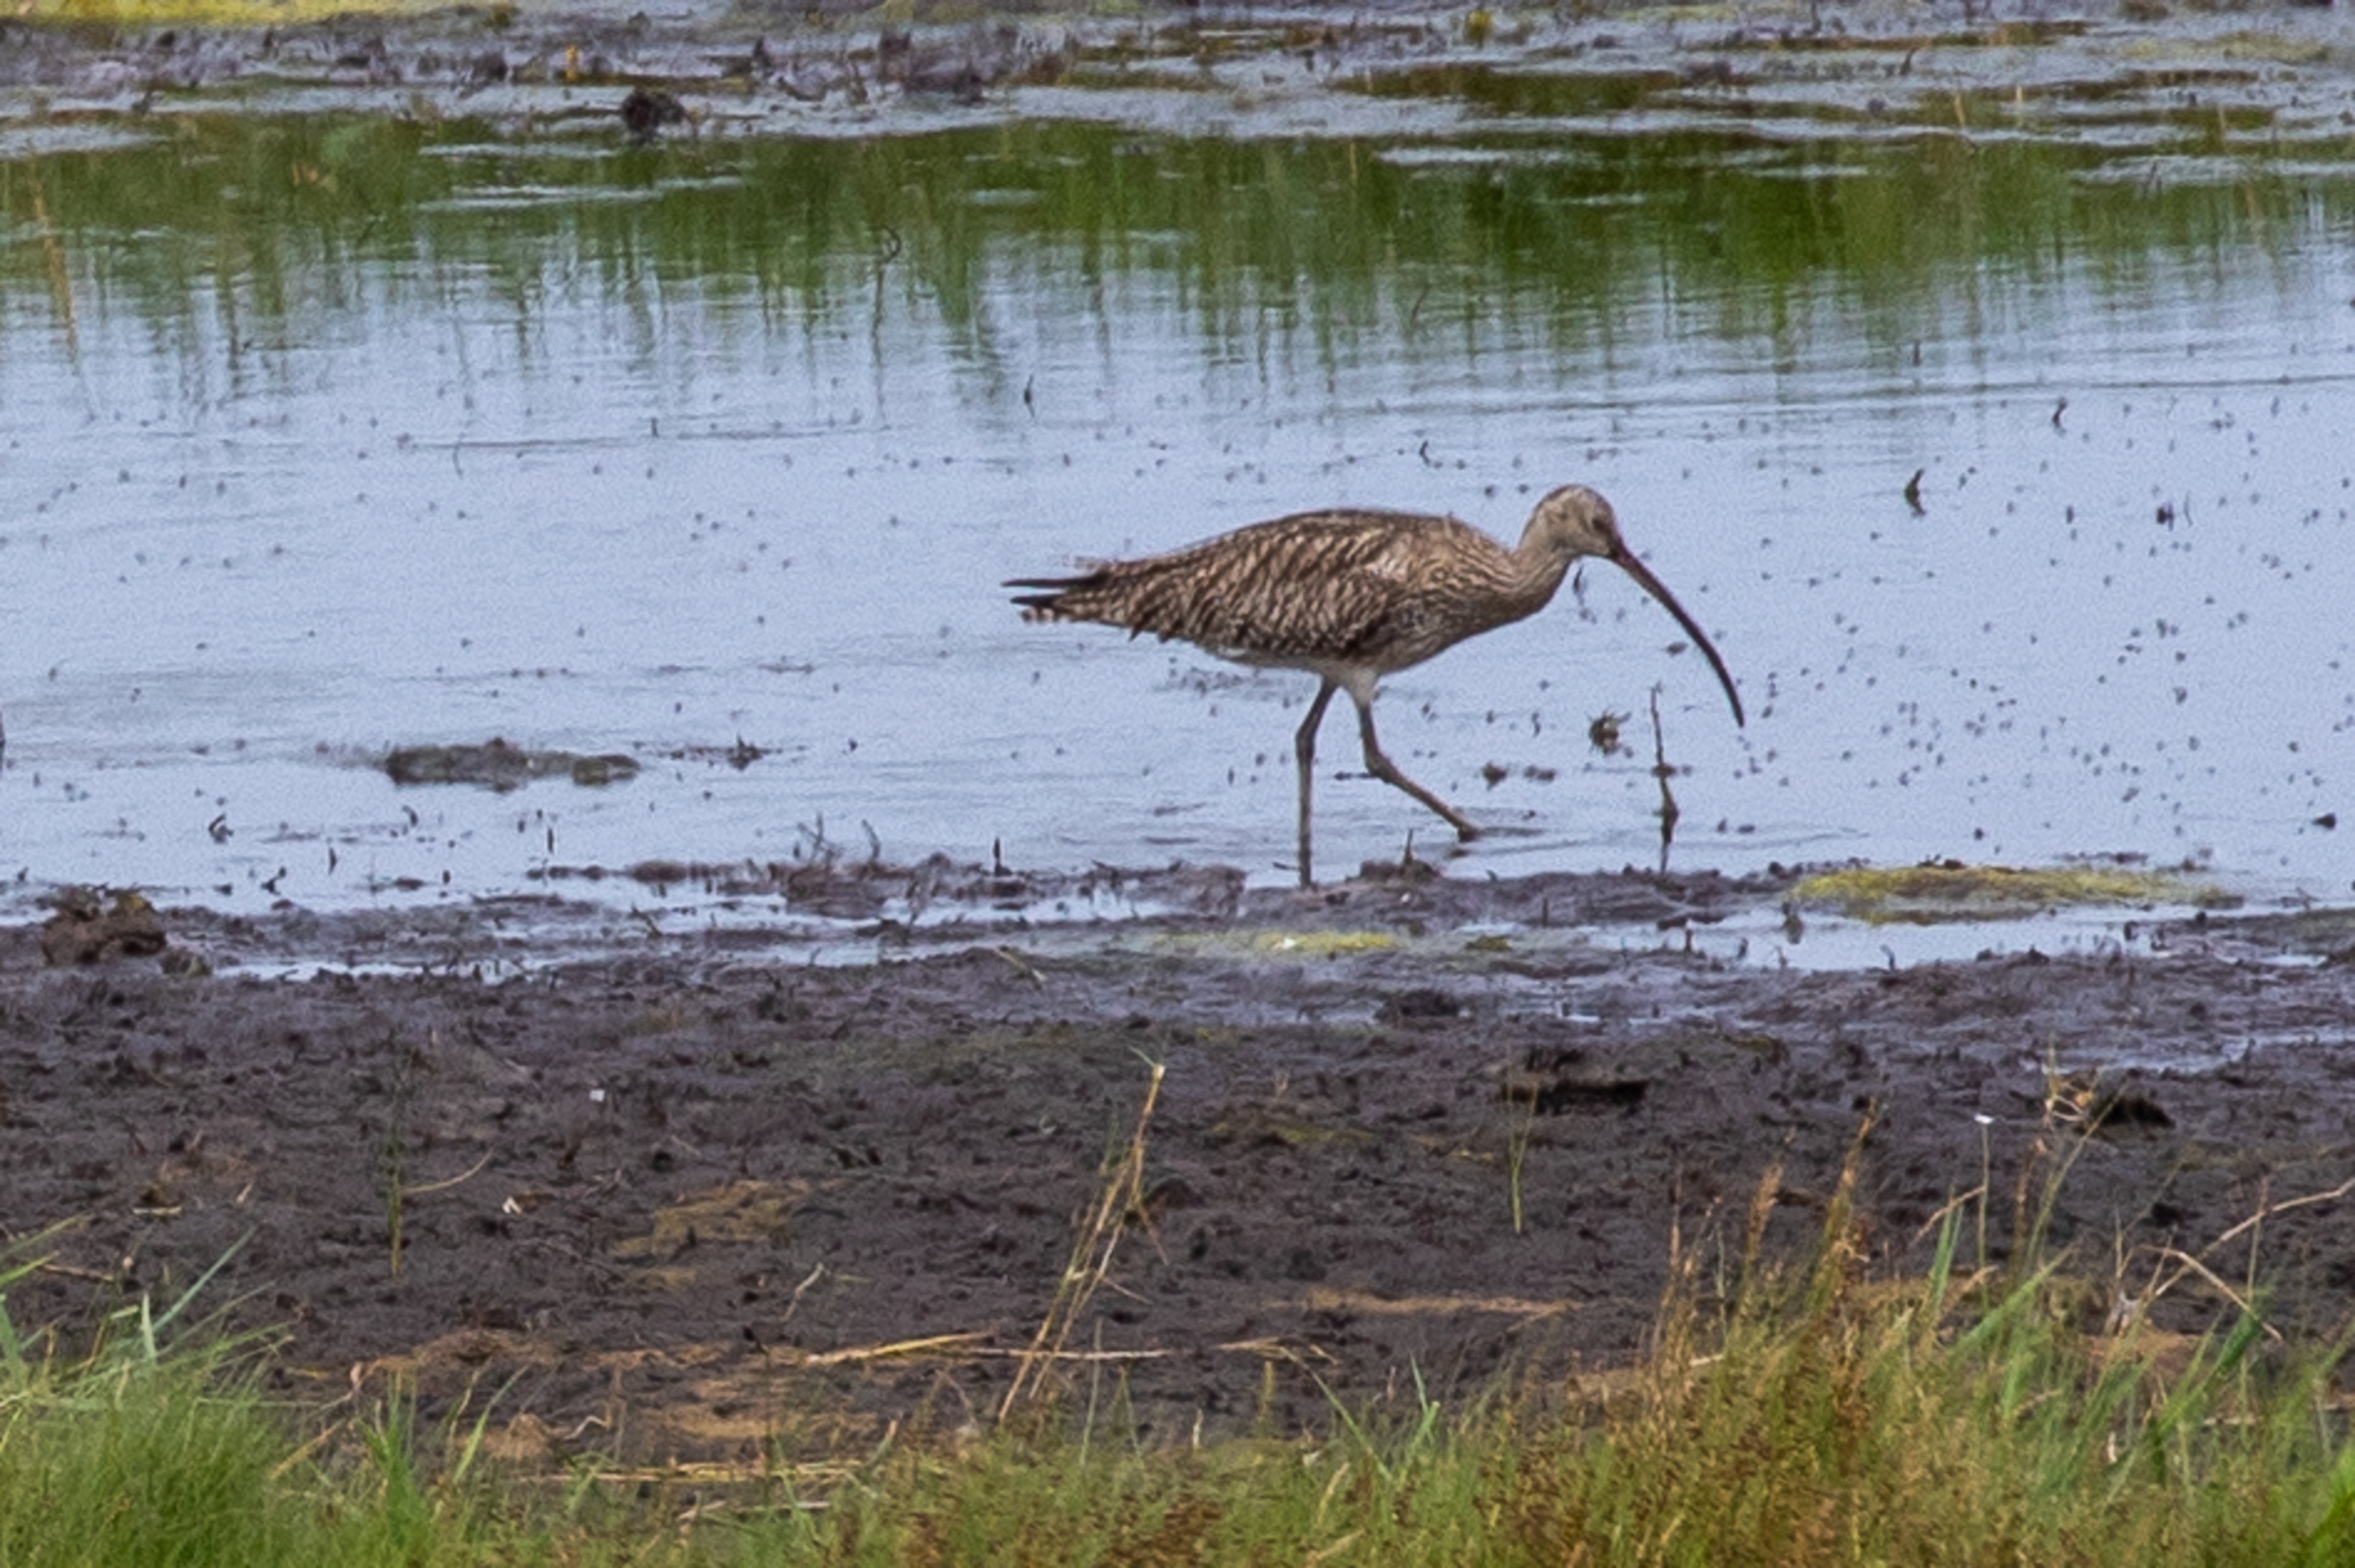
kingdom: Animalia
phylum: Chordata
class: Aves
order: Charadriiformes
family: Scolopacidae
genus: Numenius
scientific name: Numenius arquata
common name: Storspove
